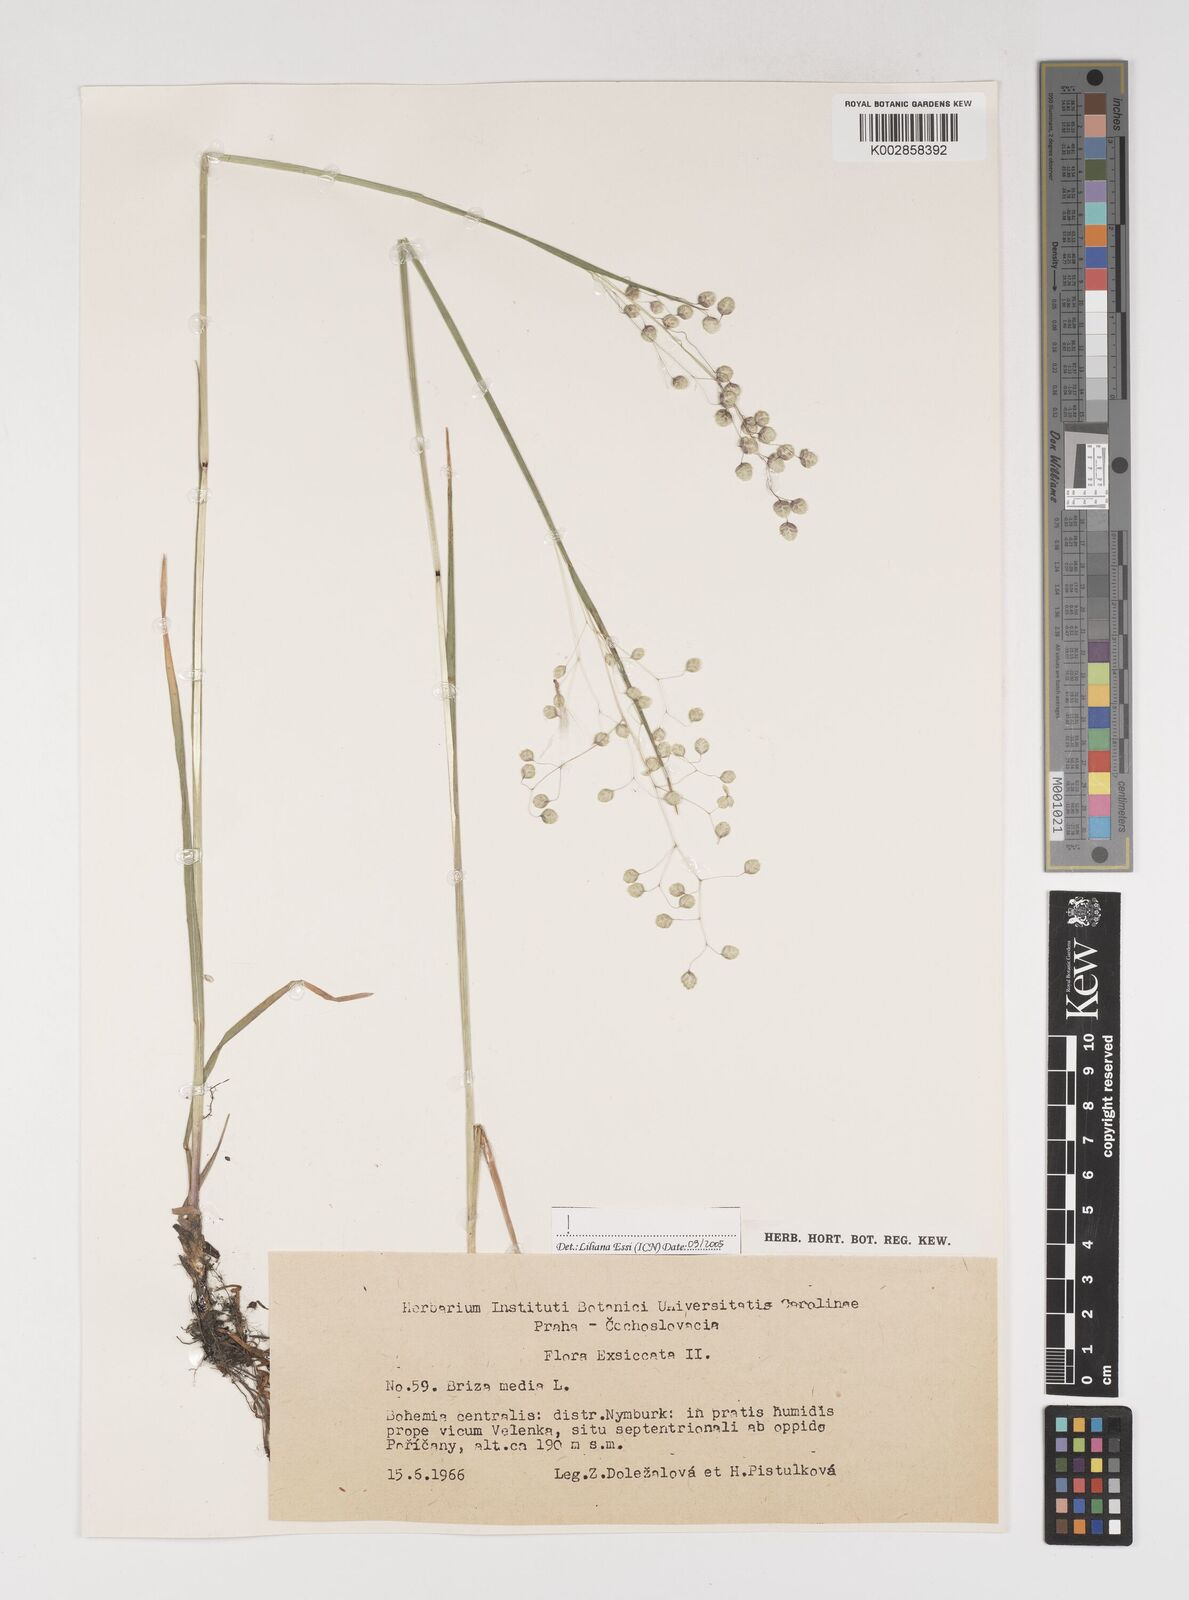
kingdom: Plantae
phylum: Tracheophyta
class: Liliopsida
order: Poales
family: Poaceae
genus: Briza
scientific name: Briza media
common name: Quaking grass
